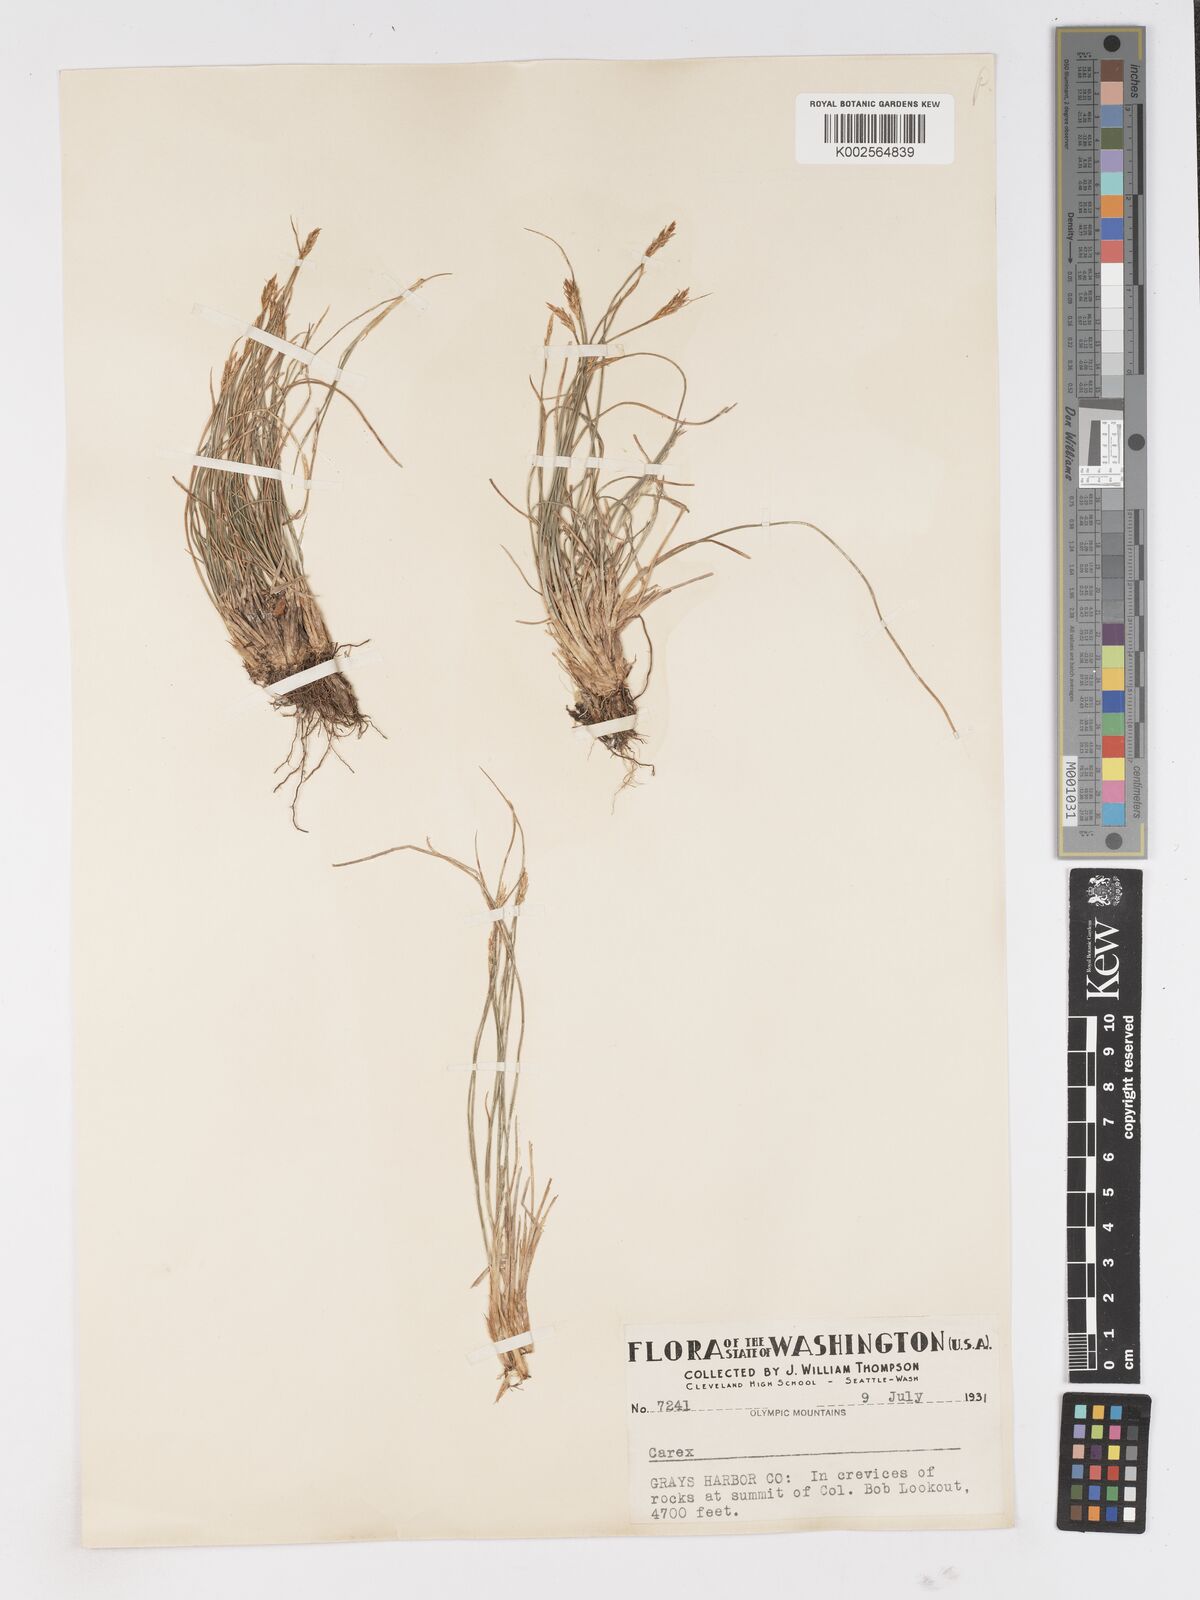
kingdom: Plantae
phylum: Tracheophyta
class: Liliopsida
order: Poales
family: Cyperaceae
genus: Carex
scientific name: Carex
